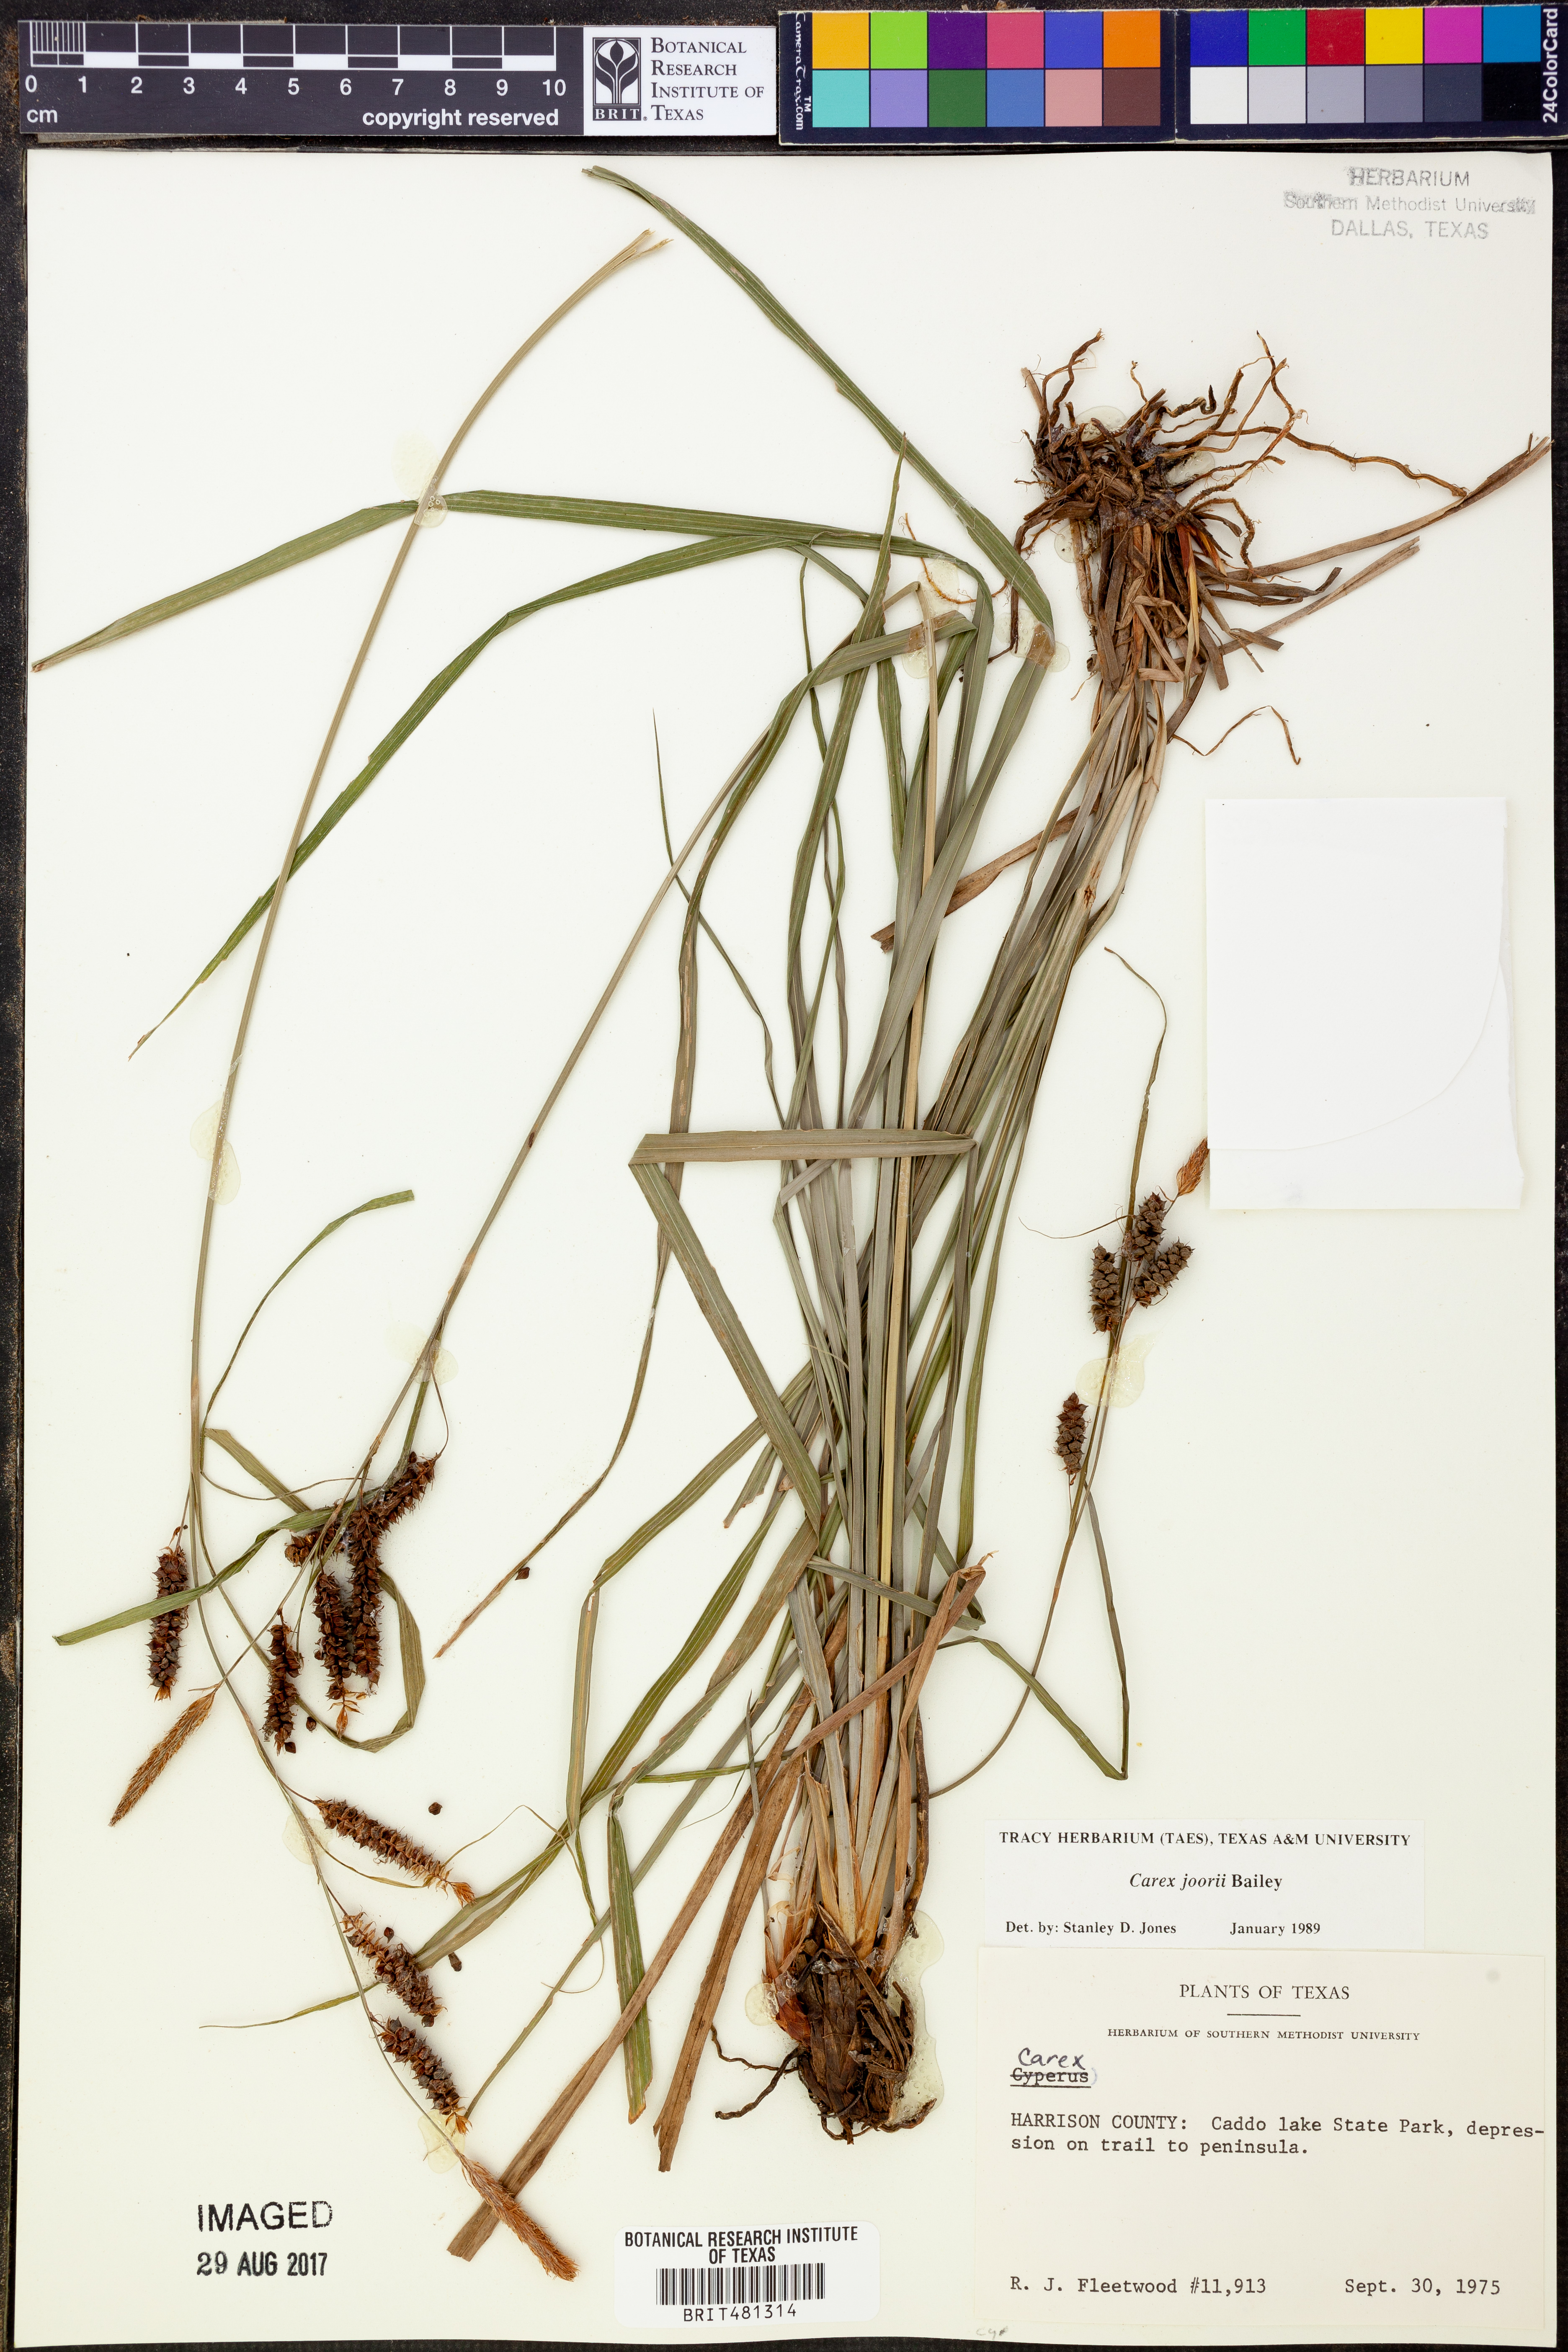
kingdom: Plantae
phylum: Tracheophyta
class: Liliopsida
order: Poales
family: Cyperaceae
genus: Carex
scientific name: Carex joorii
